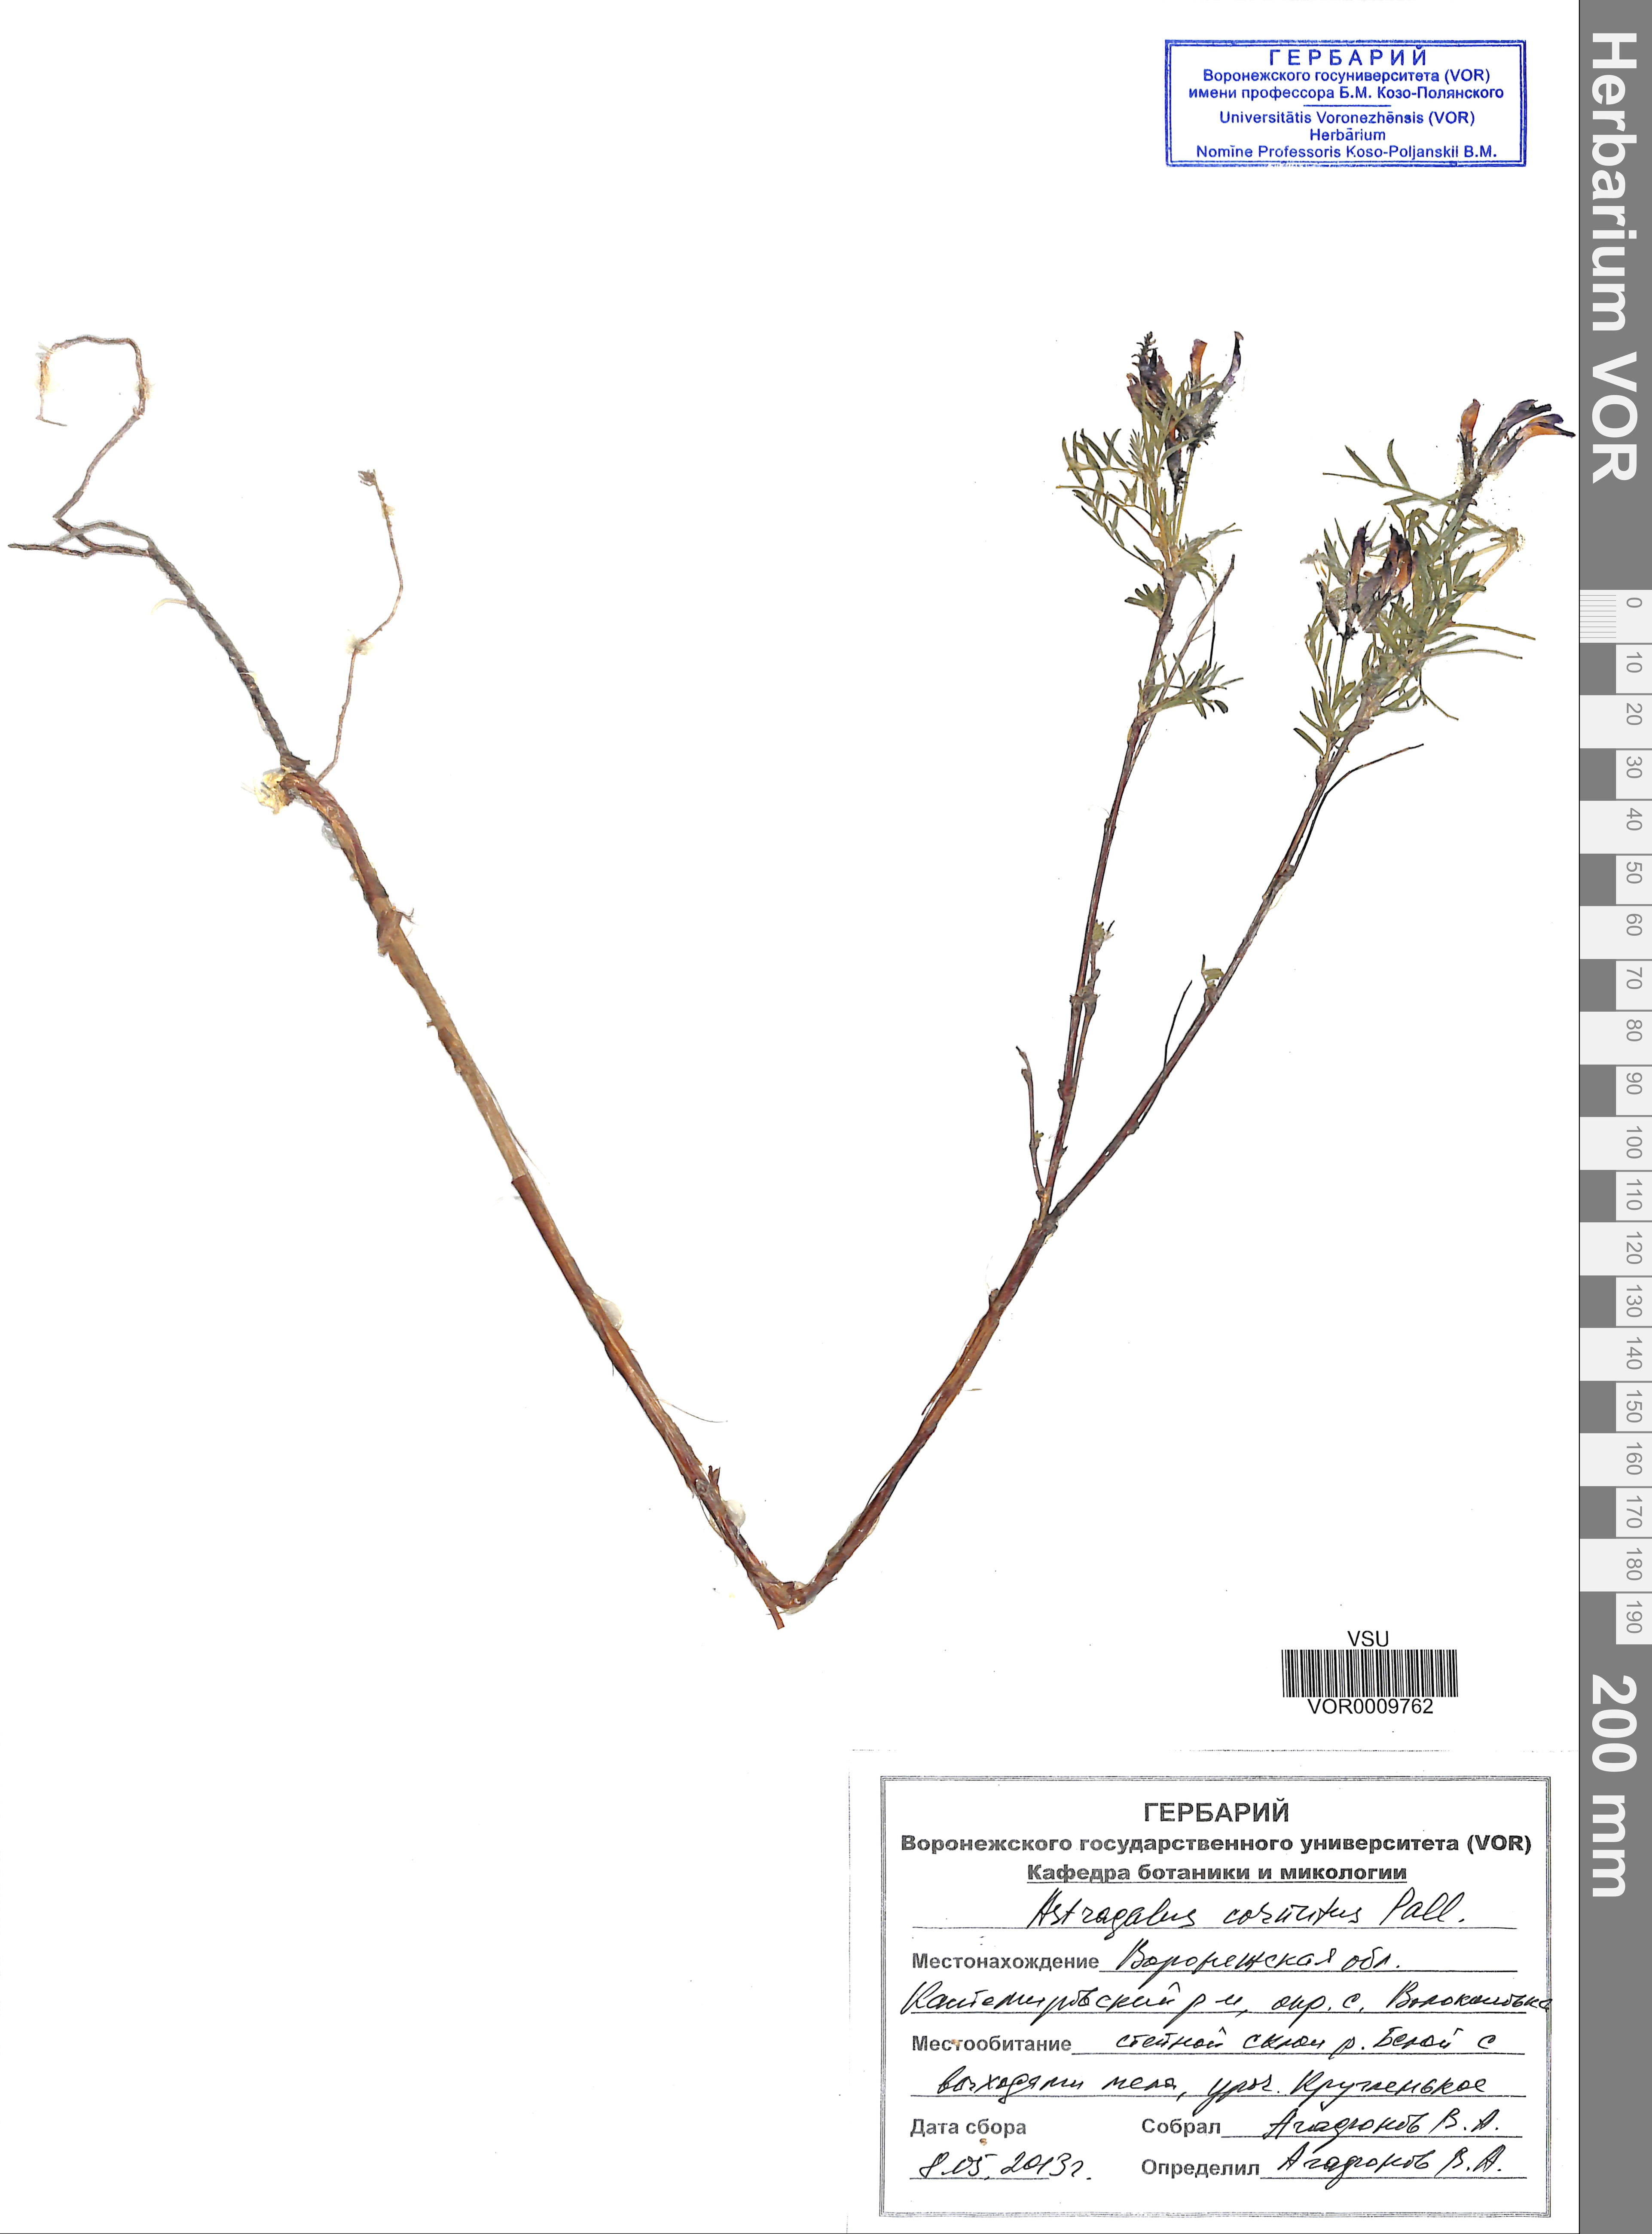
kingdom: Plantae
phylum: Tracheophyta
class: Magnoliopsida
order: Fabales
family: Fabaceae
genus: Astragalus
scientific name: Astragalus cornutus
